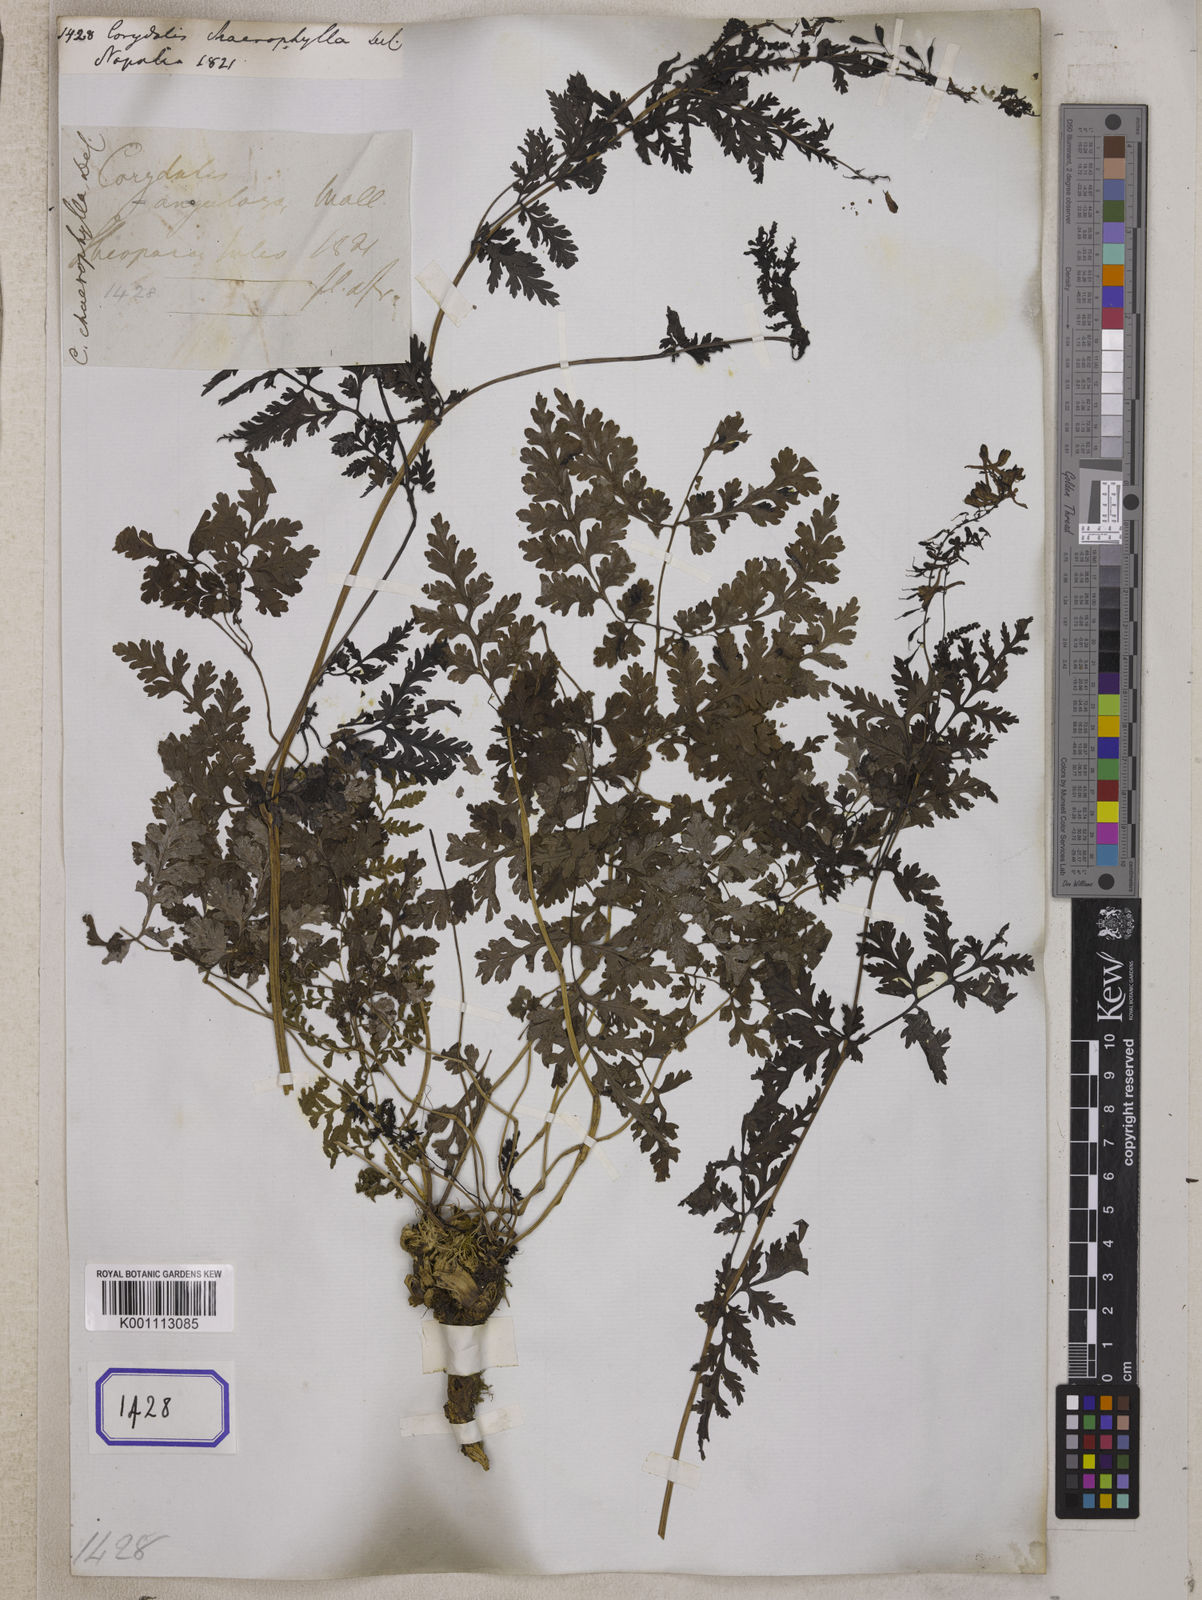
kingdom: Plantae
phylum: Tracheophyta
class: Magnoliopsida
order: Ranunculales
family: Papaveraceae
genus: Corydalis
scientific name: Corydalis chaerophylla
